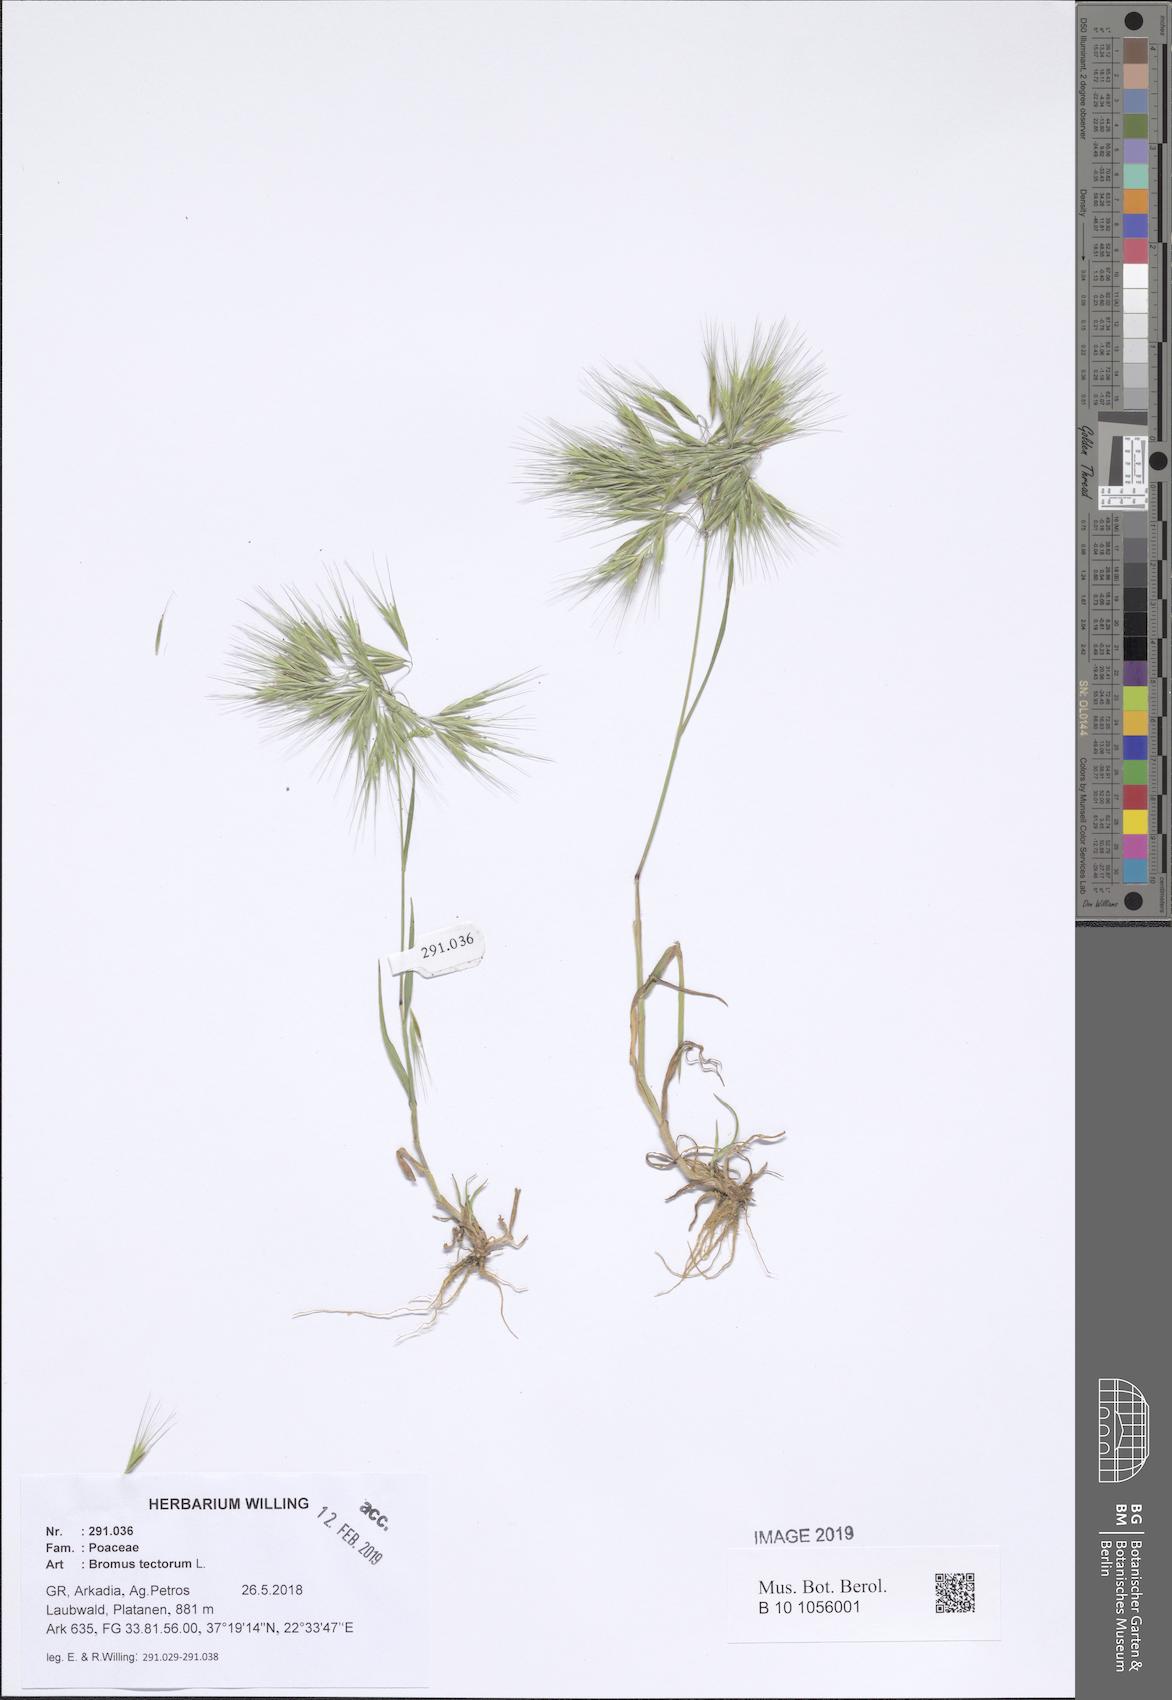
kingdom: Plantae
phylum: Tracheophyta
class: Liliopsida
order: Poales
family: Poaceae
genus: Bromus
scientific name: Bromus tectorum
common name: Cheatgrass
